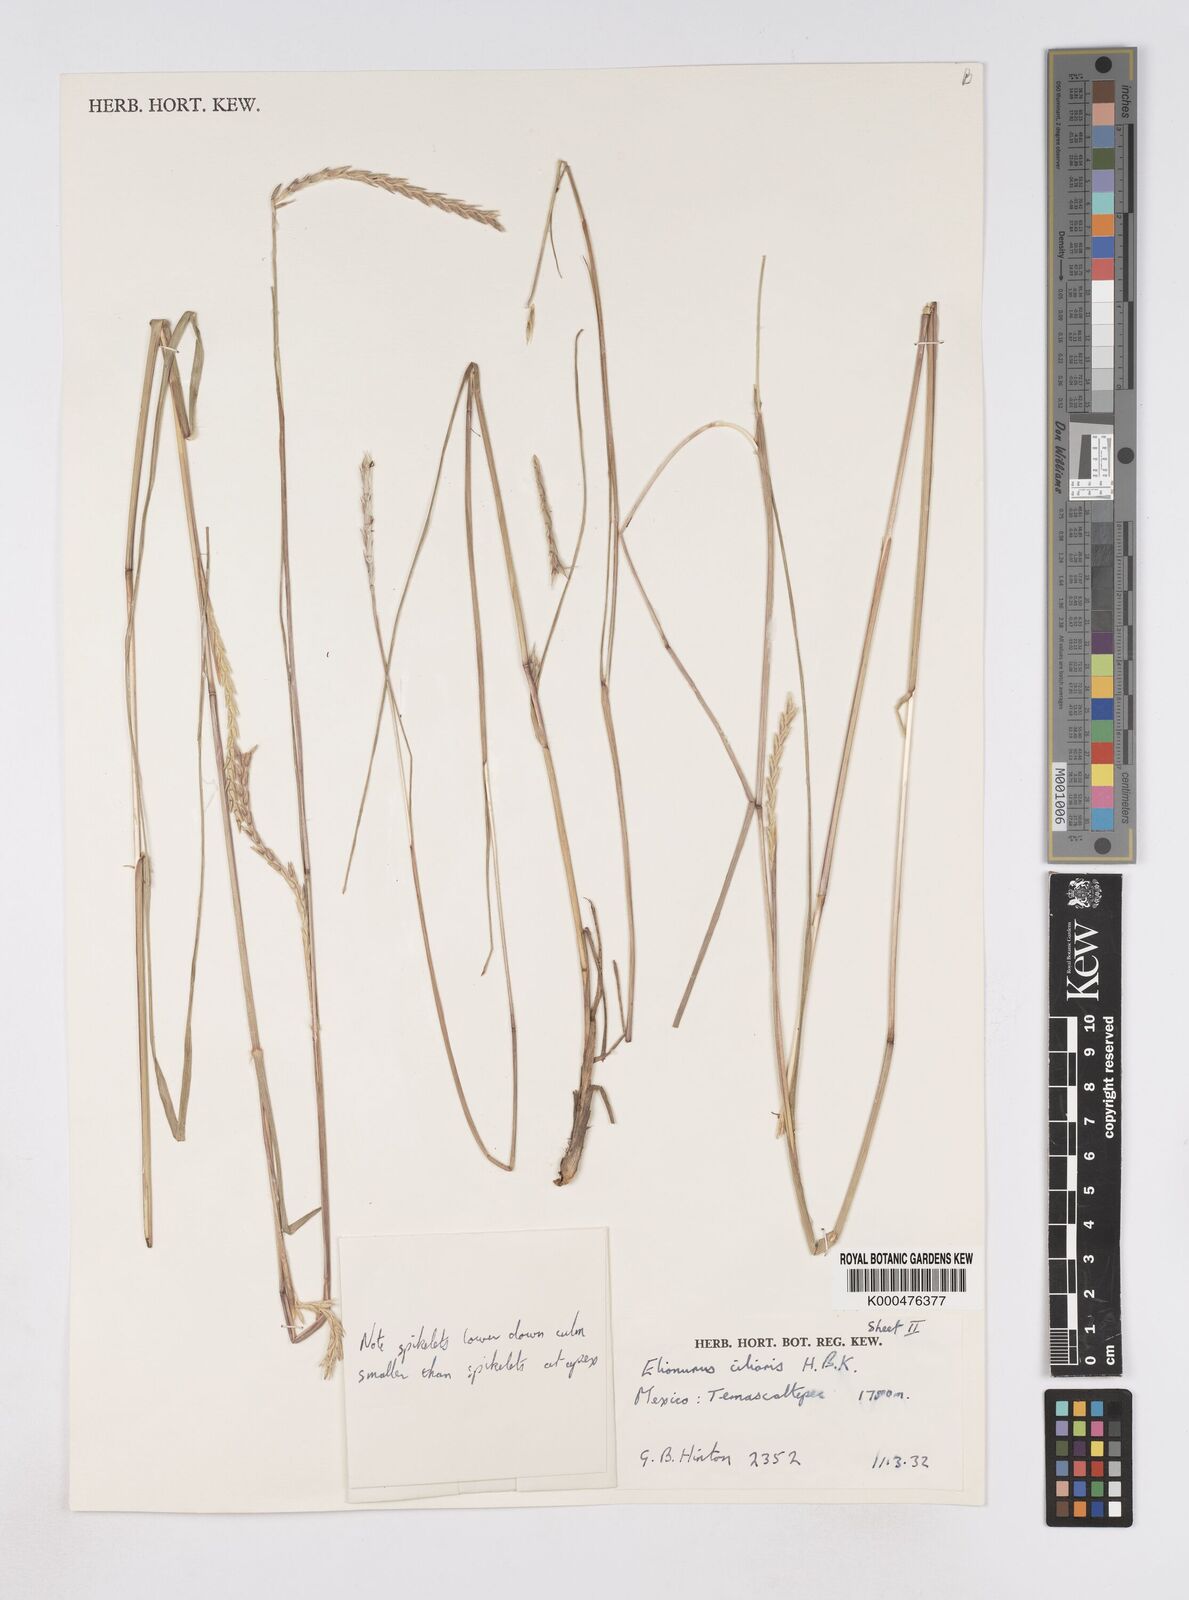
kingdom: Plantae
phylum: Tracheophyta
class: Liliopsida
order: Poales
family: Poaceae
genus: Elionurus
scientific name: Elionurus ciliaris
